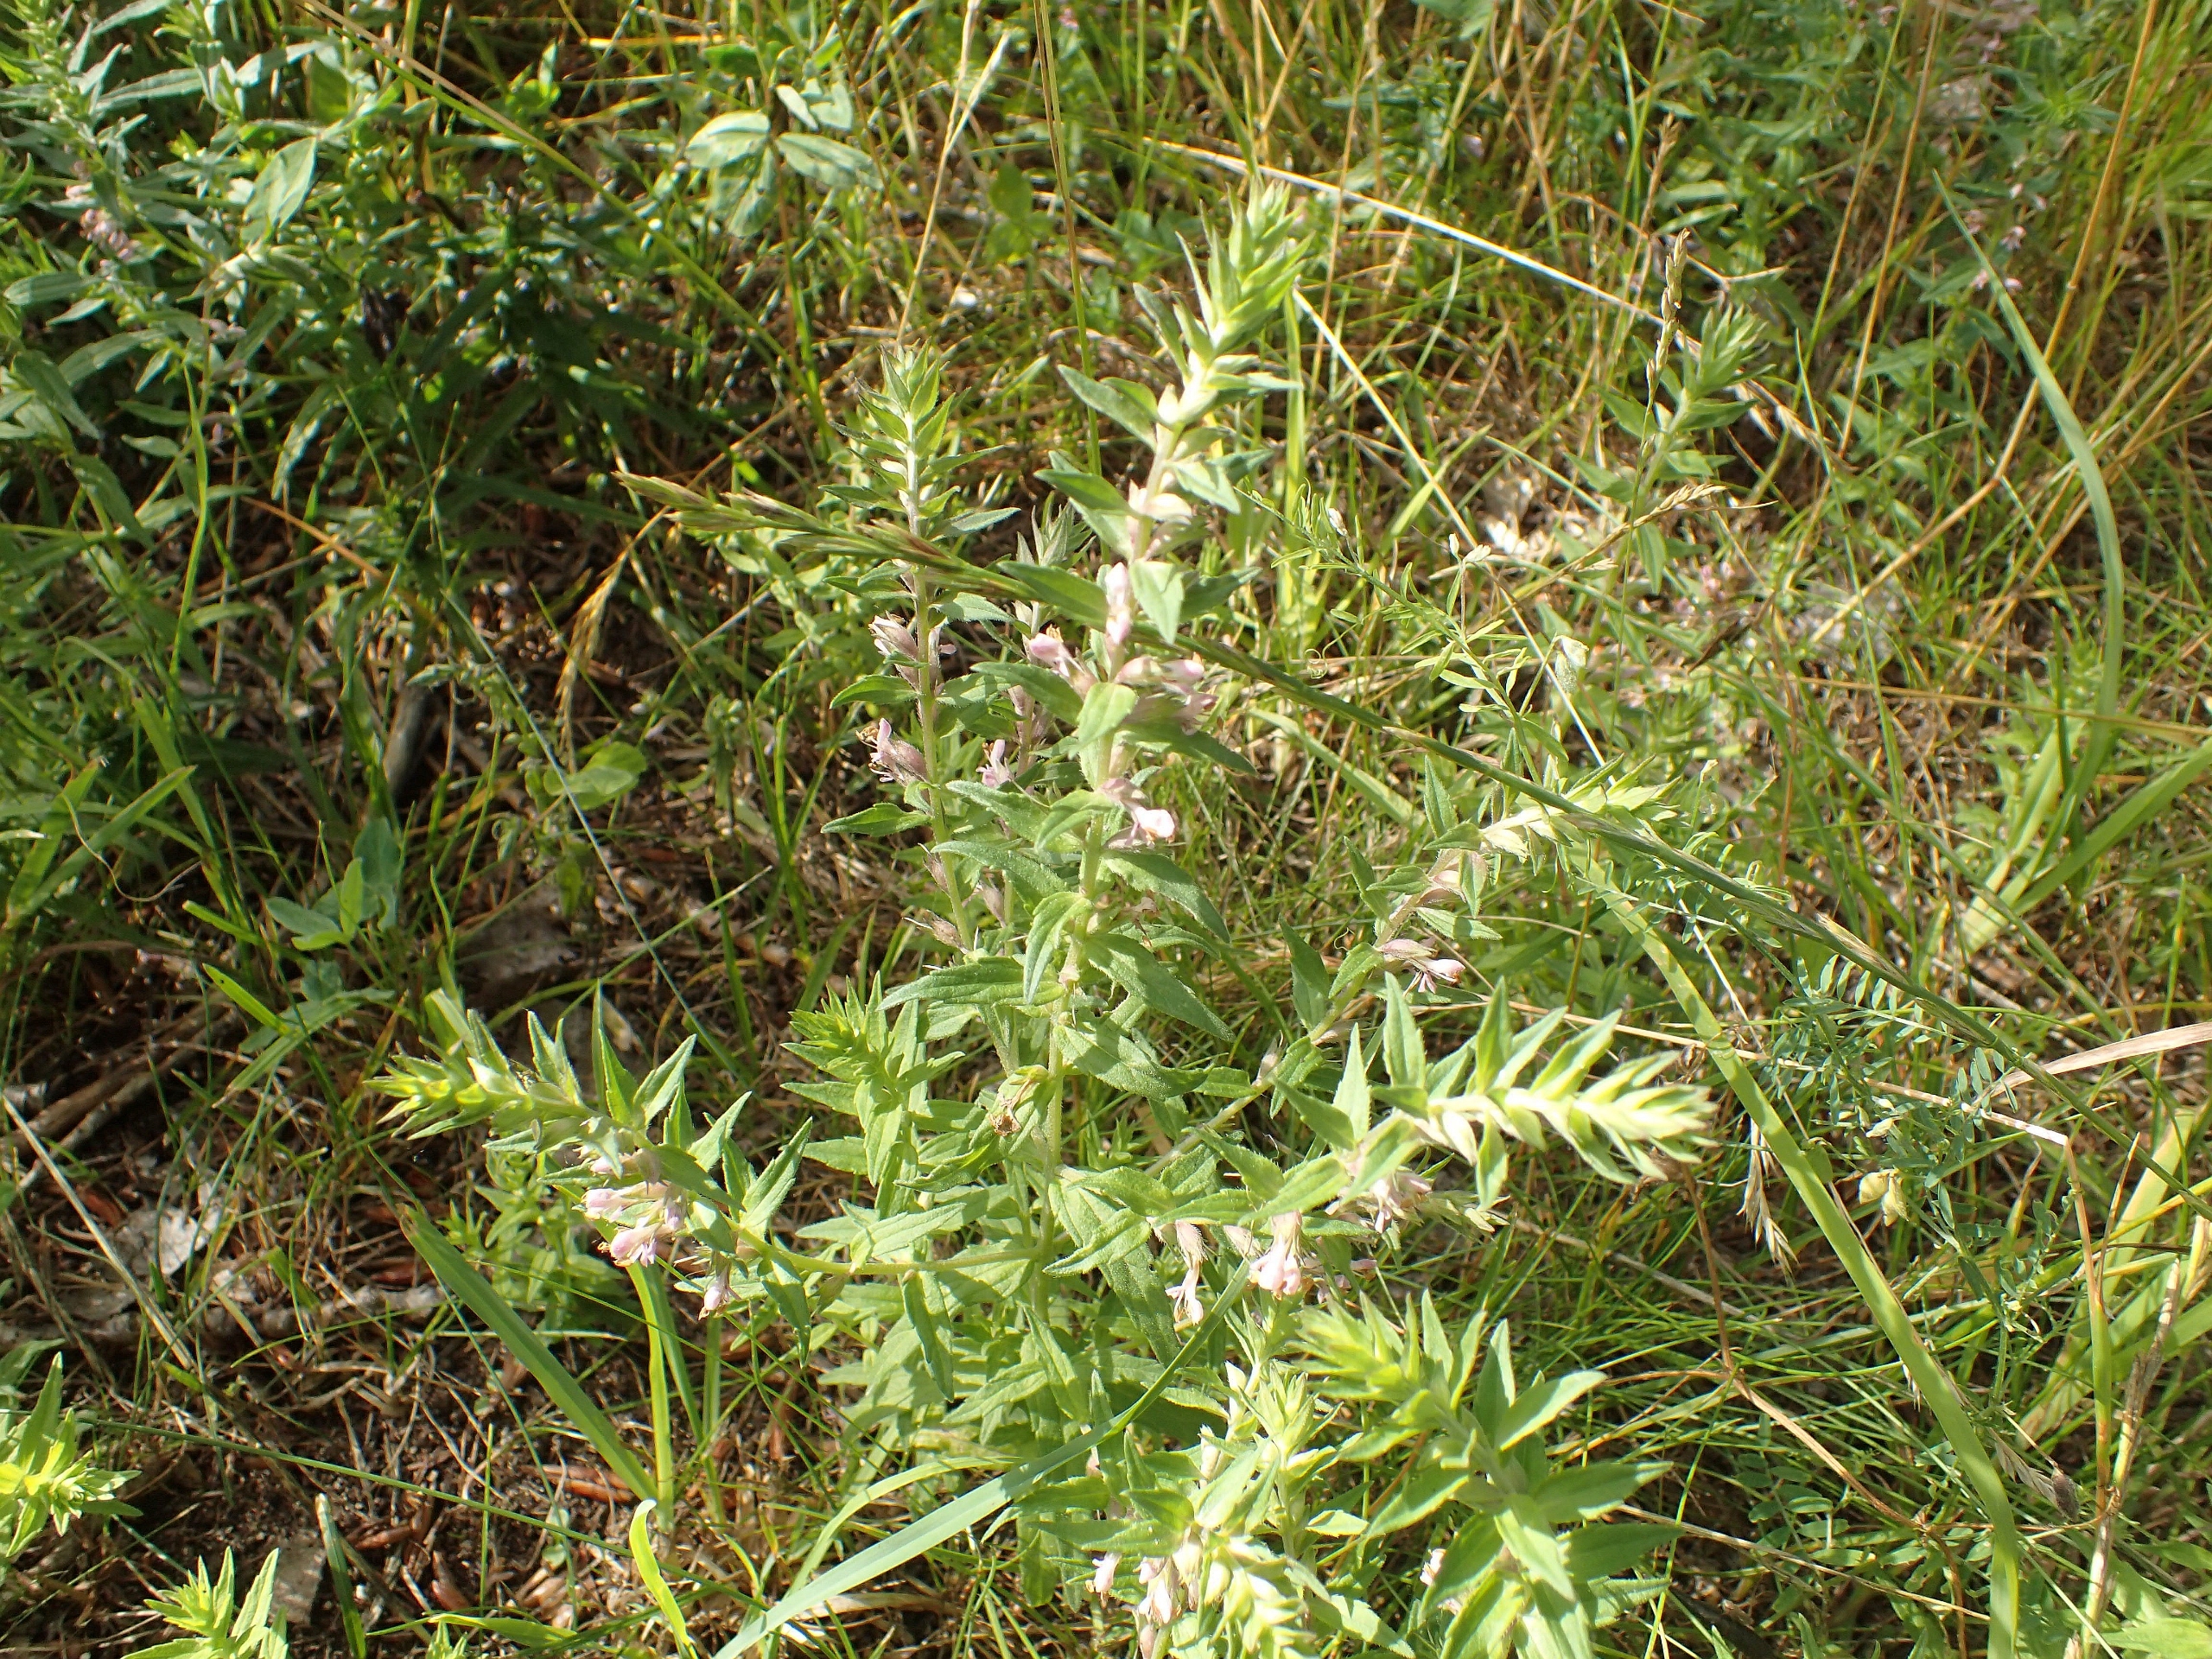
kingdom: Plantae
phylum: Tracheophyta
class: Magnoliopsida
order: Lamiales
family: Orobanchaceae
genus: Odontites
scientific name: Odontites vulgaris
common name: Høst-rødtop
